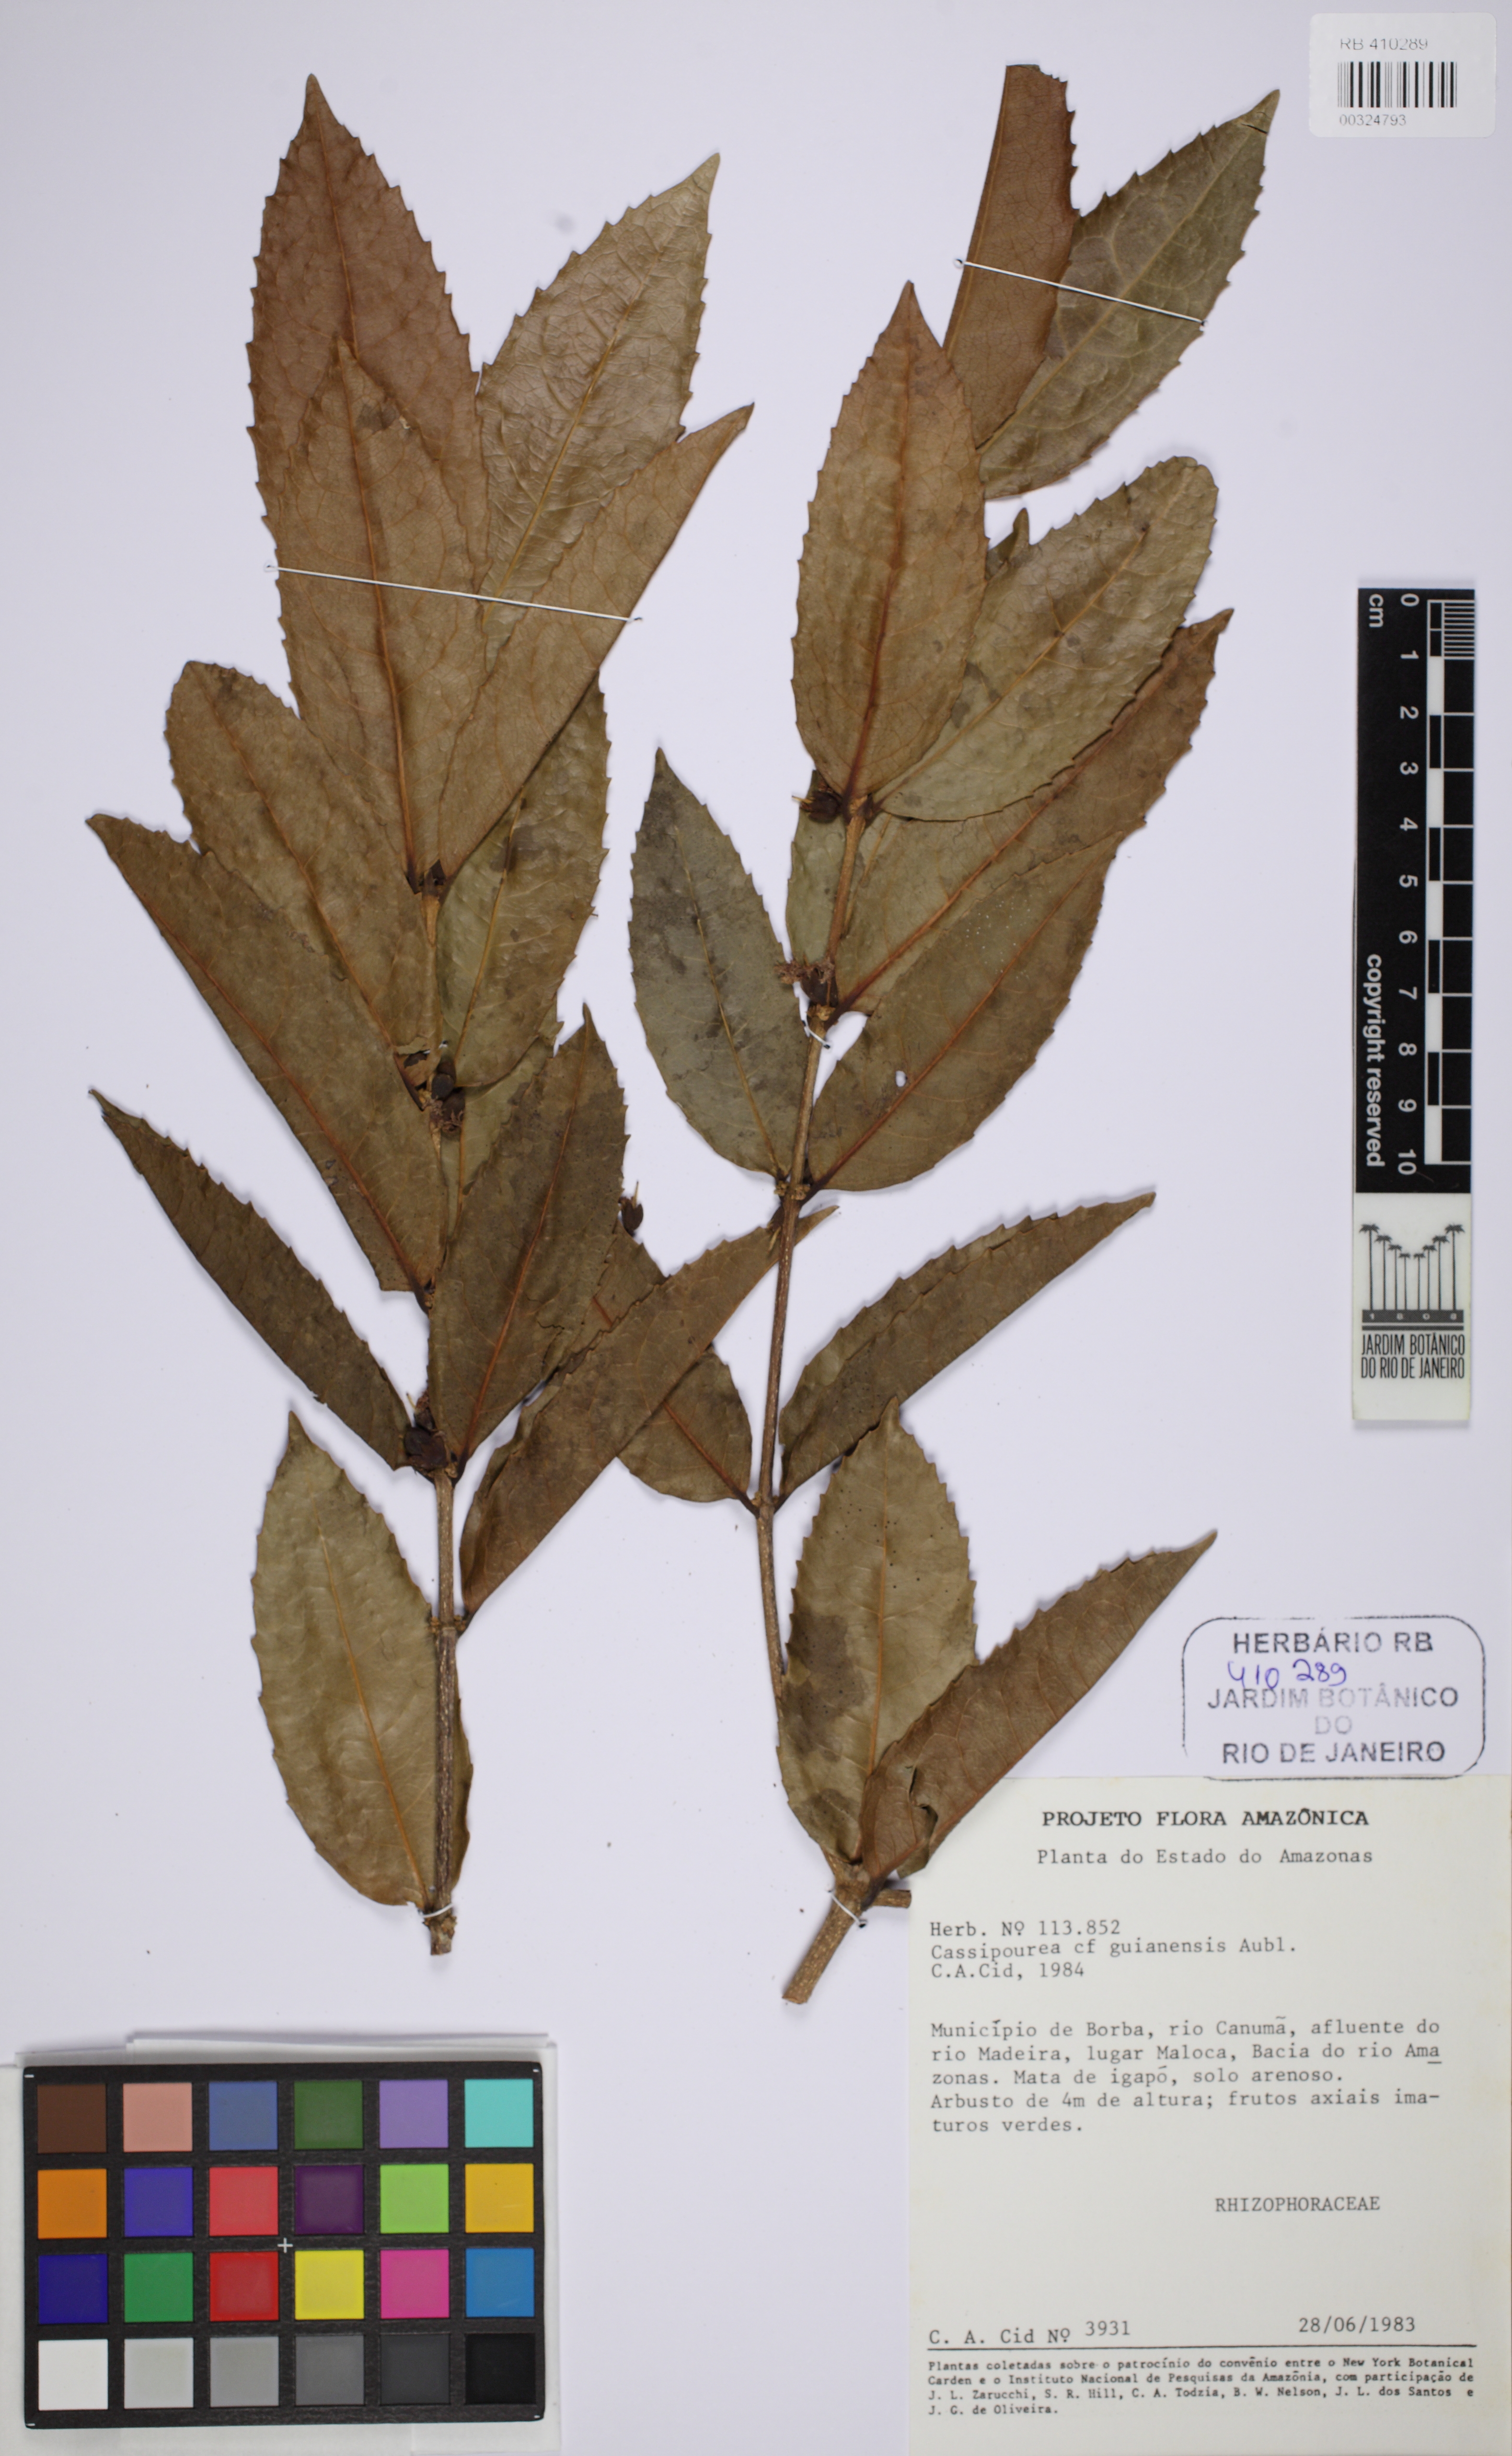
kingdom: Plantae
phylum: Tracheophyta
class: Magnoliopsida
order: Malpighiales
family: Rhizophoraceae
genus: Cassipourea
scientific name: Cassipourea guianensis
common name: Bastard waterwood
